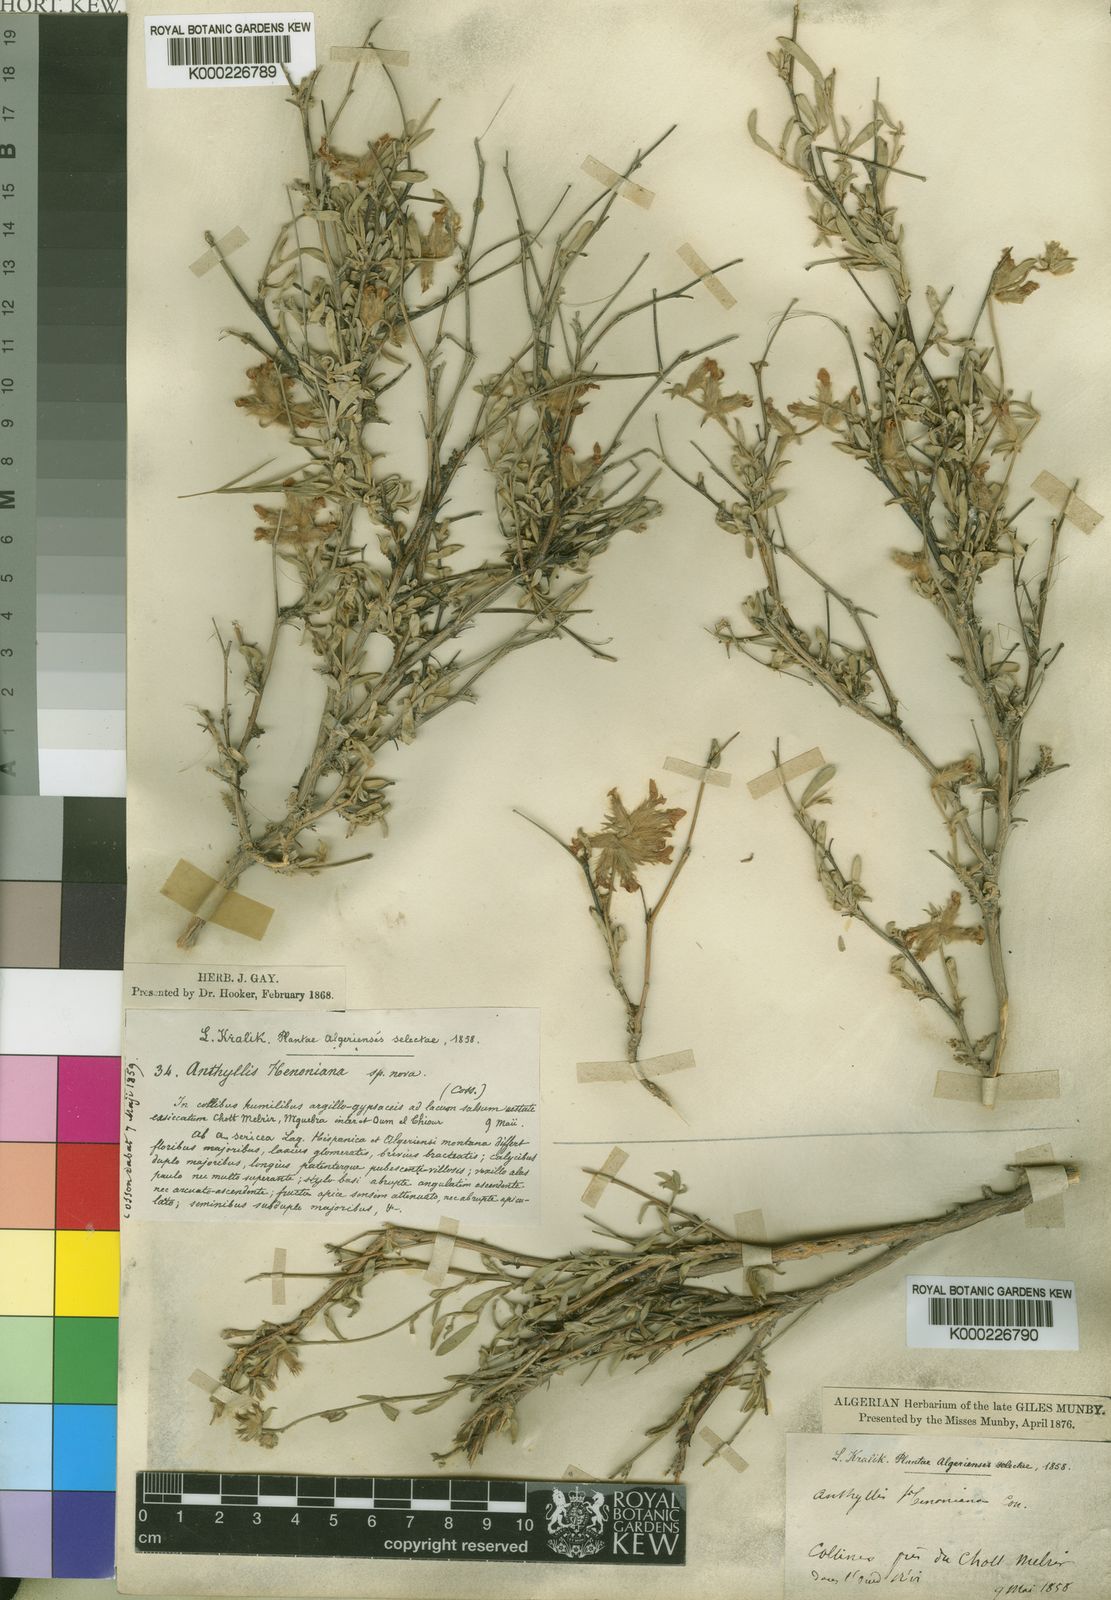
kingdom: Plantae
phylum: Tracheophyta
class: Magnoliopsida
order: Fabales
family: Fabaceae
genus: Anthyllis
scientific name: Anthyllis subsimplex
